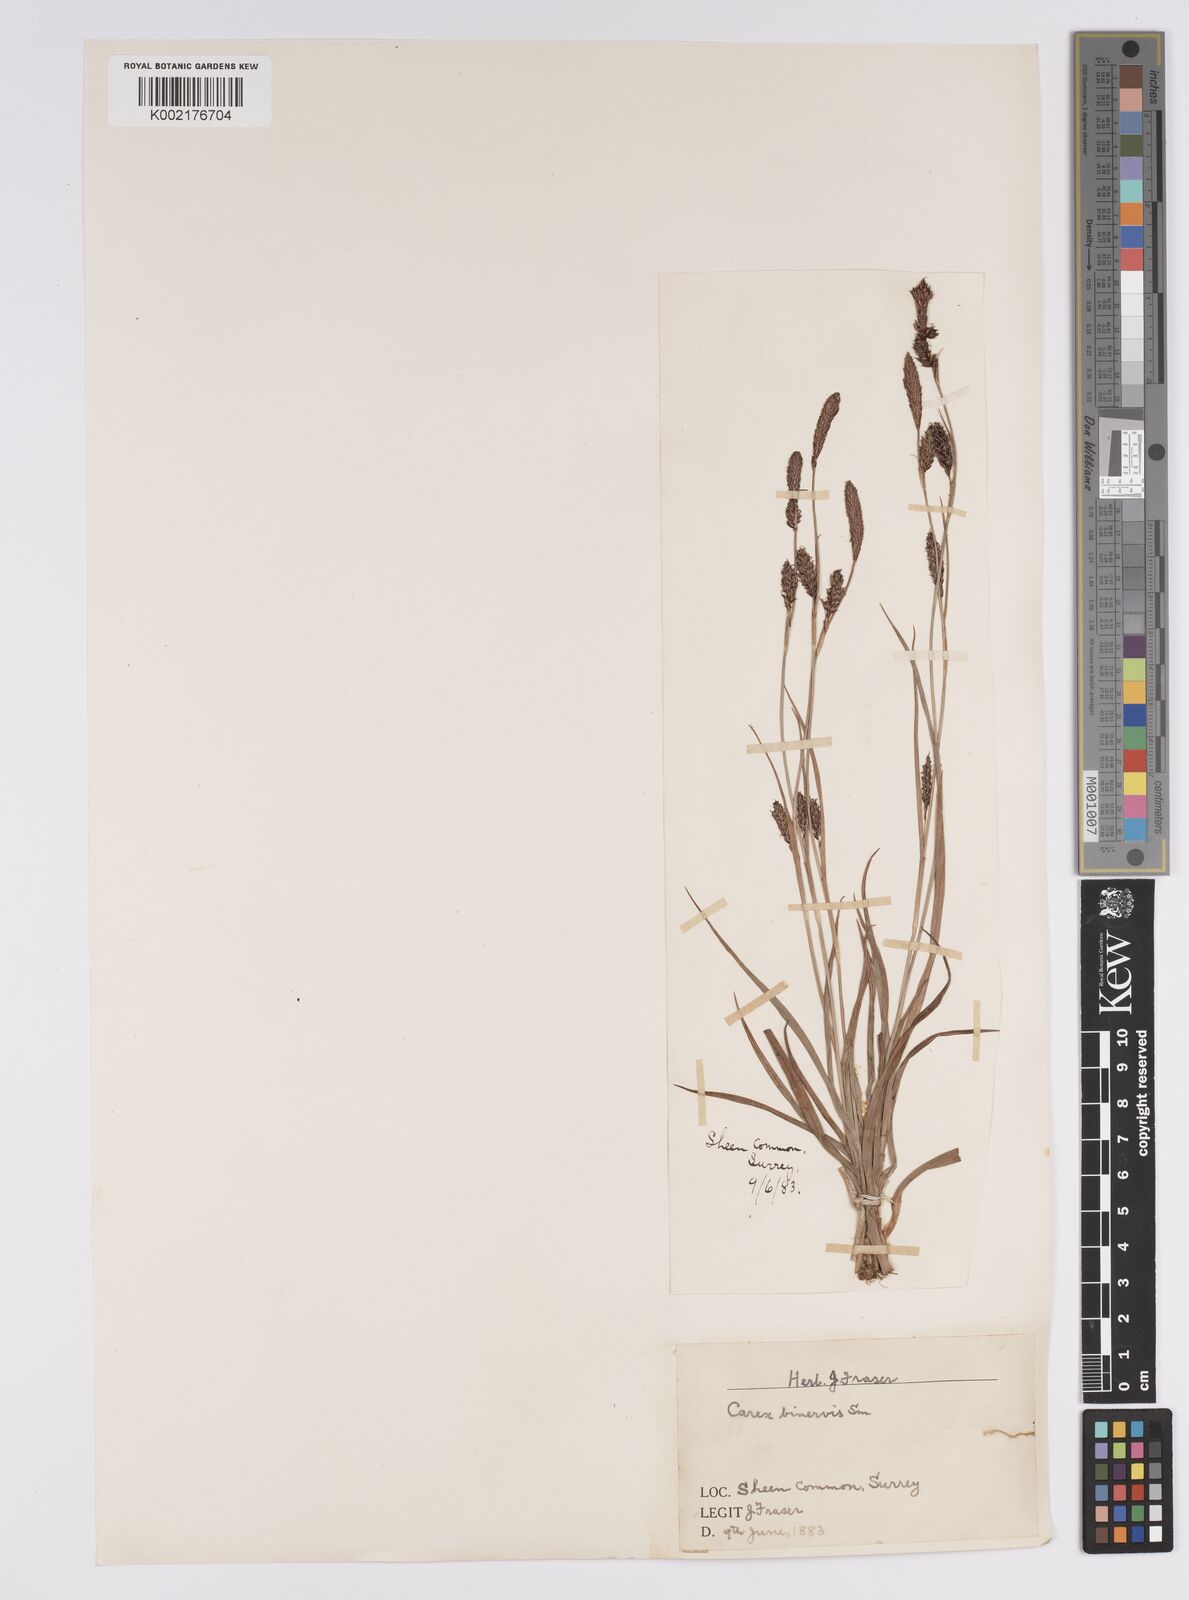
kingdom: Plantae
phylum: Tracheophyta
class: Liliopsida
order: Poales
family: Cyperaceae
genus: Carex
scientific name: Carex binervis
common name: Green-ribbed sedge
